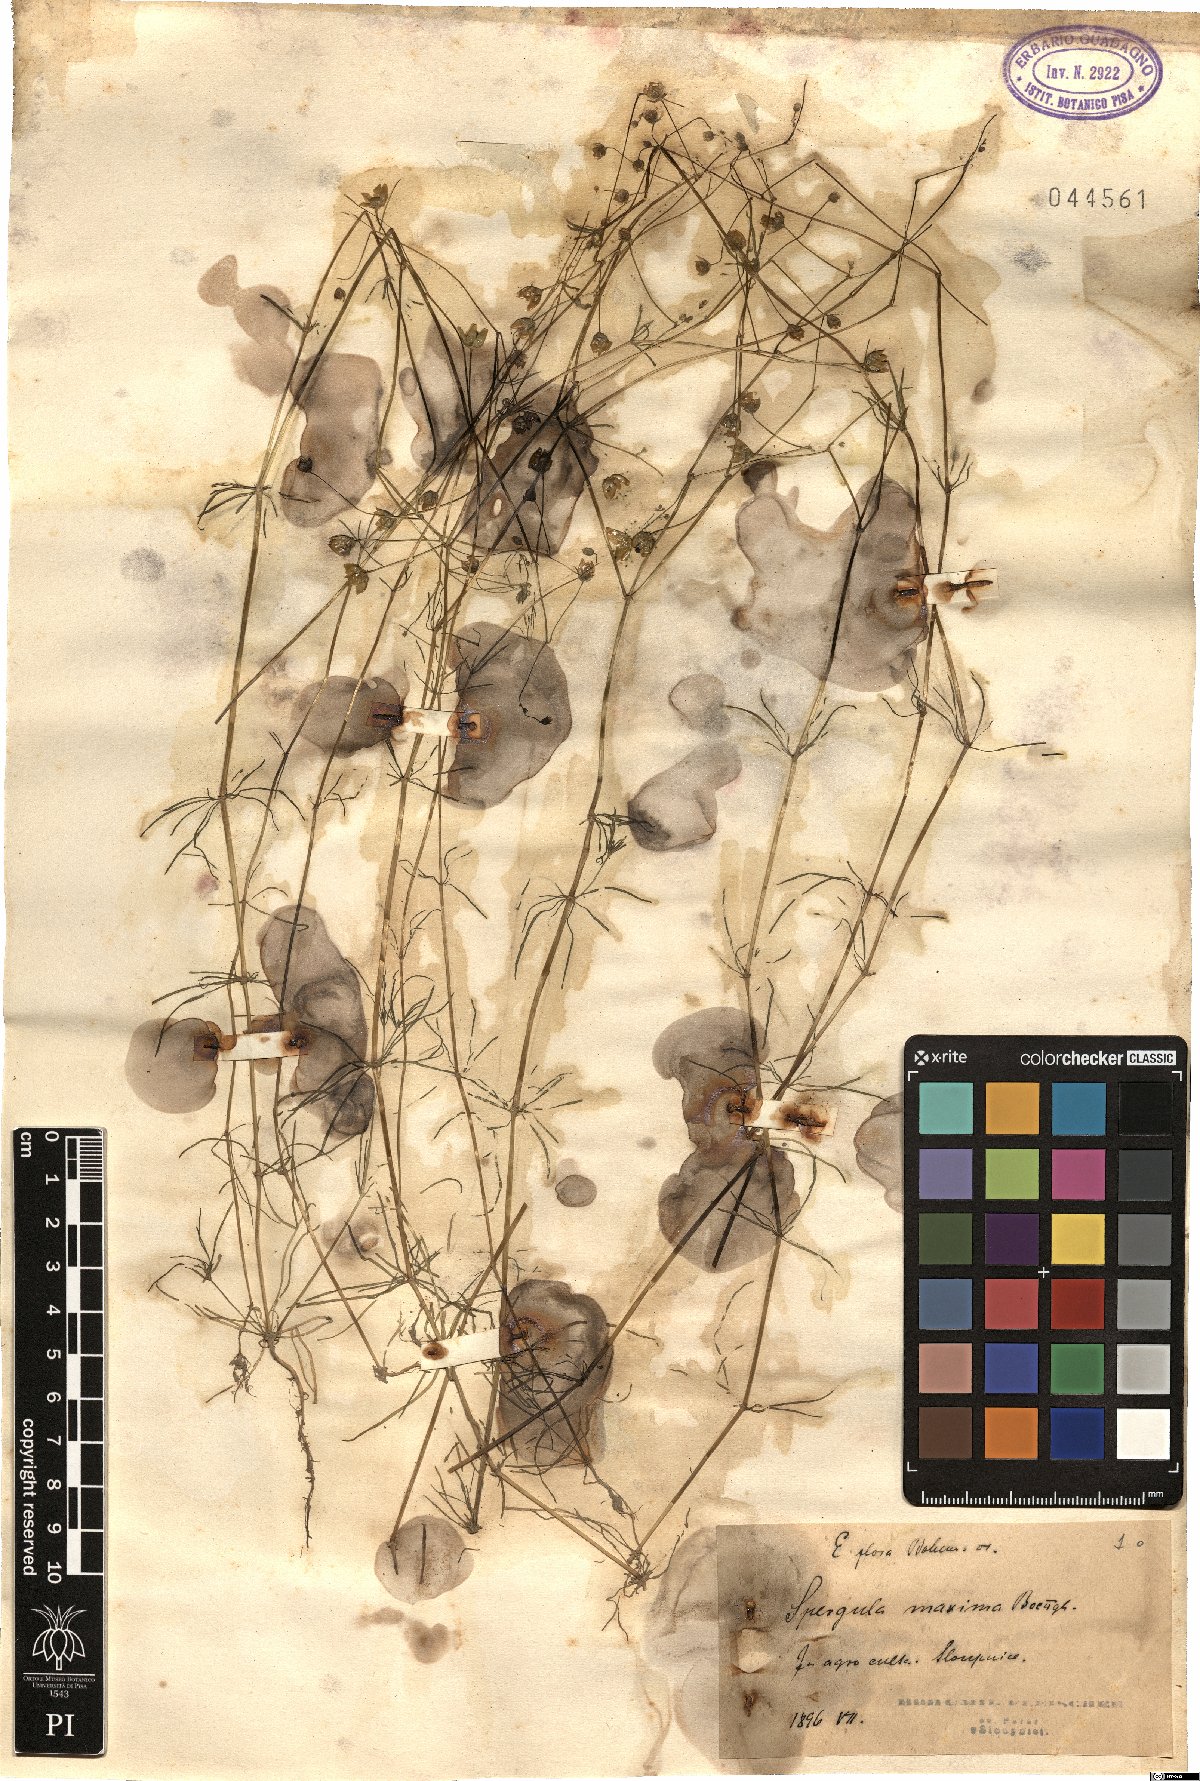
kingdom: Plantae
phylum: Tracheophyta
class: Magnoliopsida
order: Caryophyllales
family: Caryophyllaceae
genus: Spergula
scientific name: Spergula arvensis
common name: Corn spurrey
